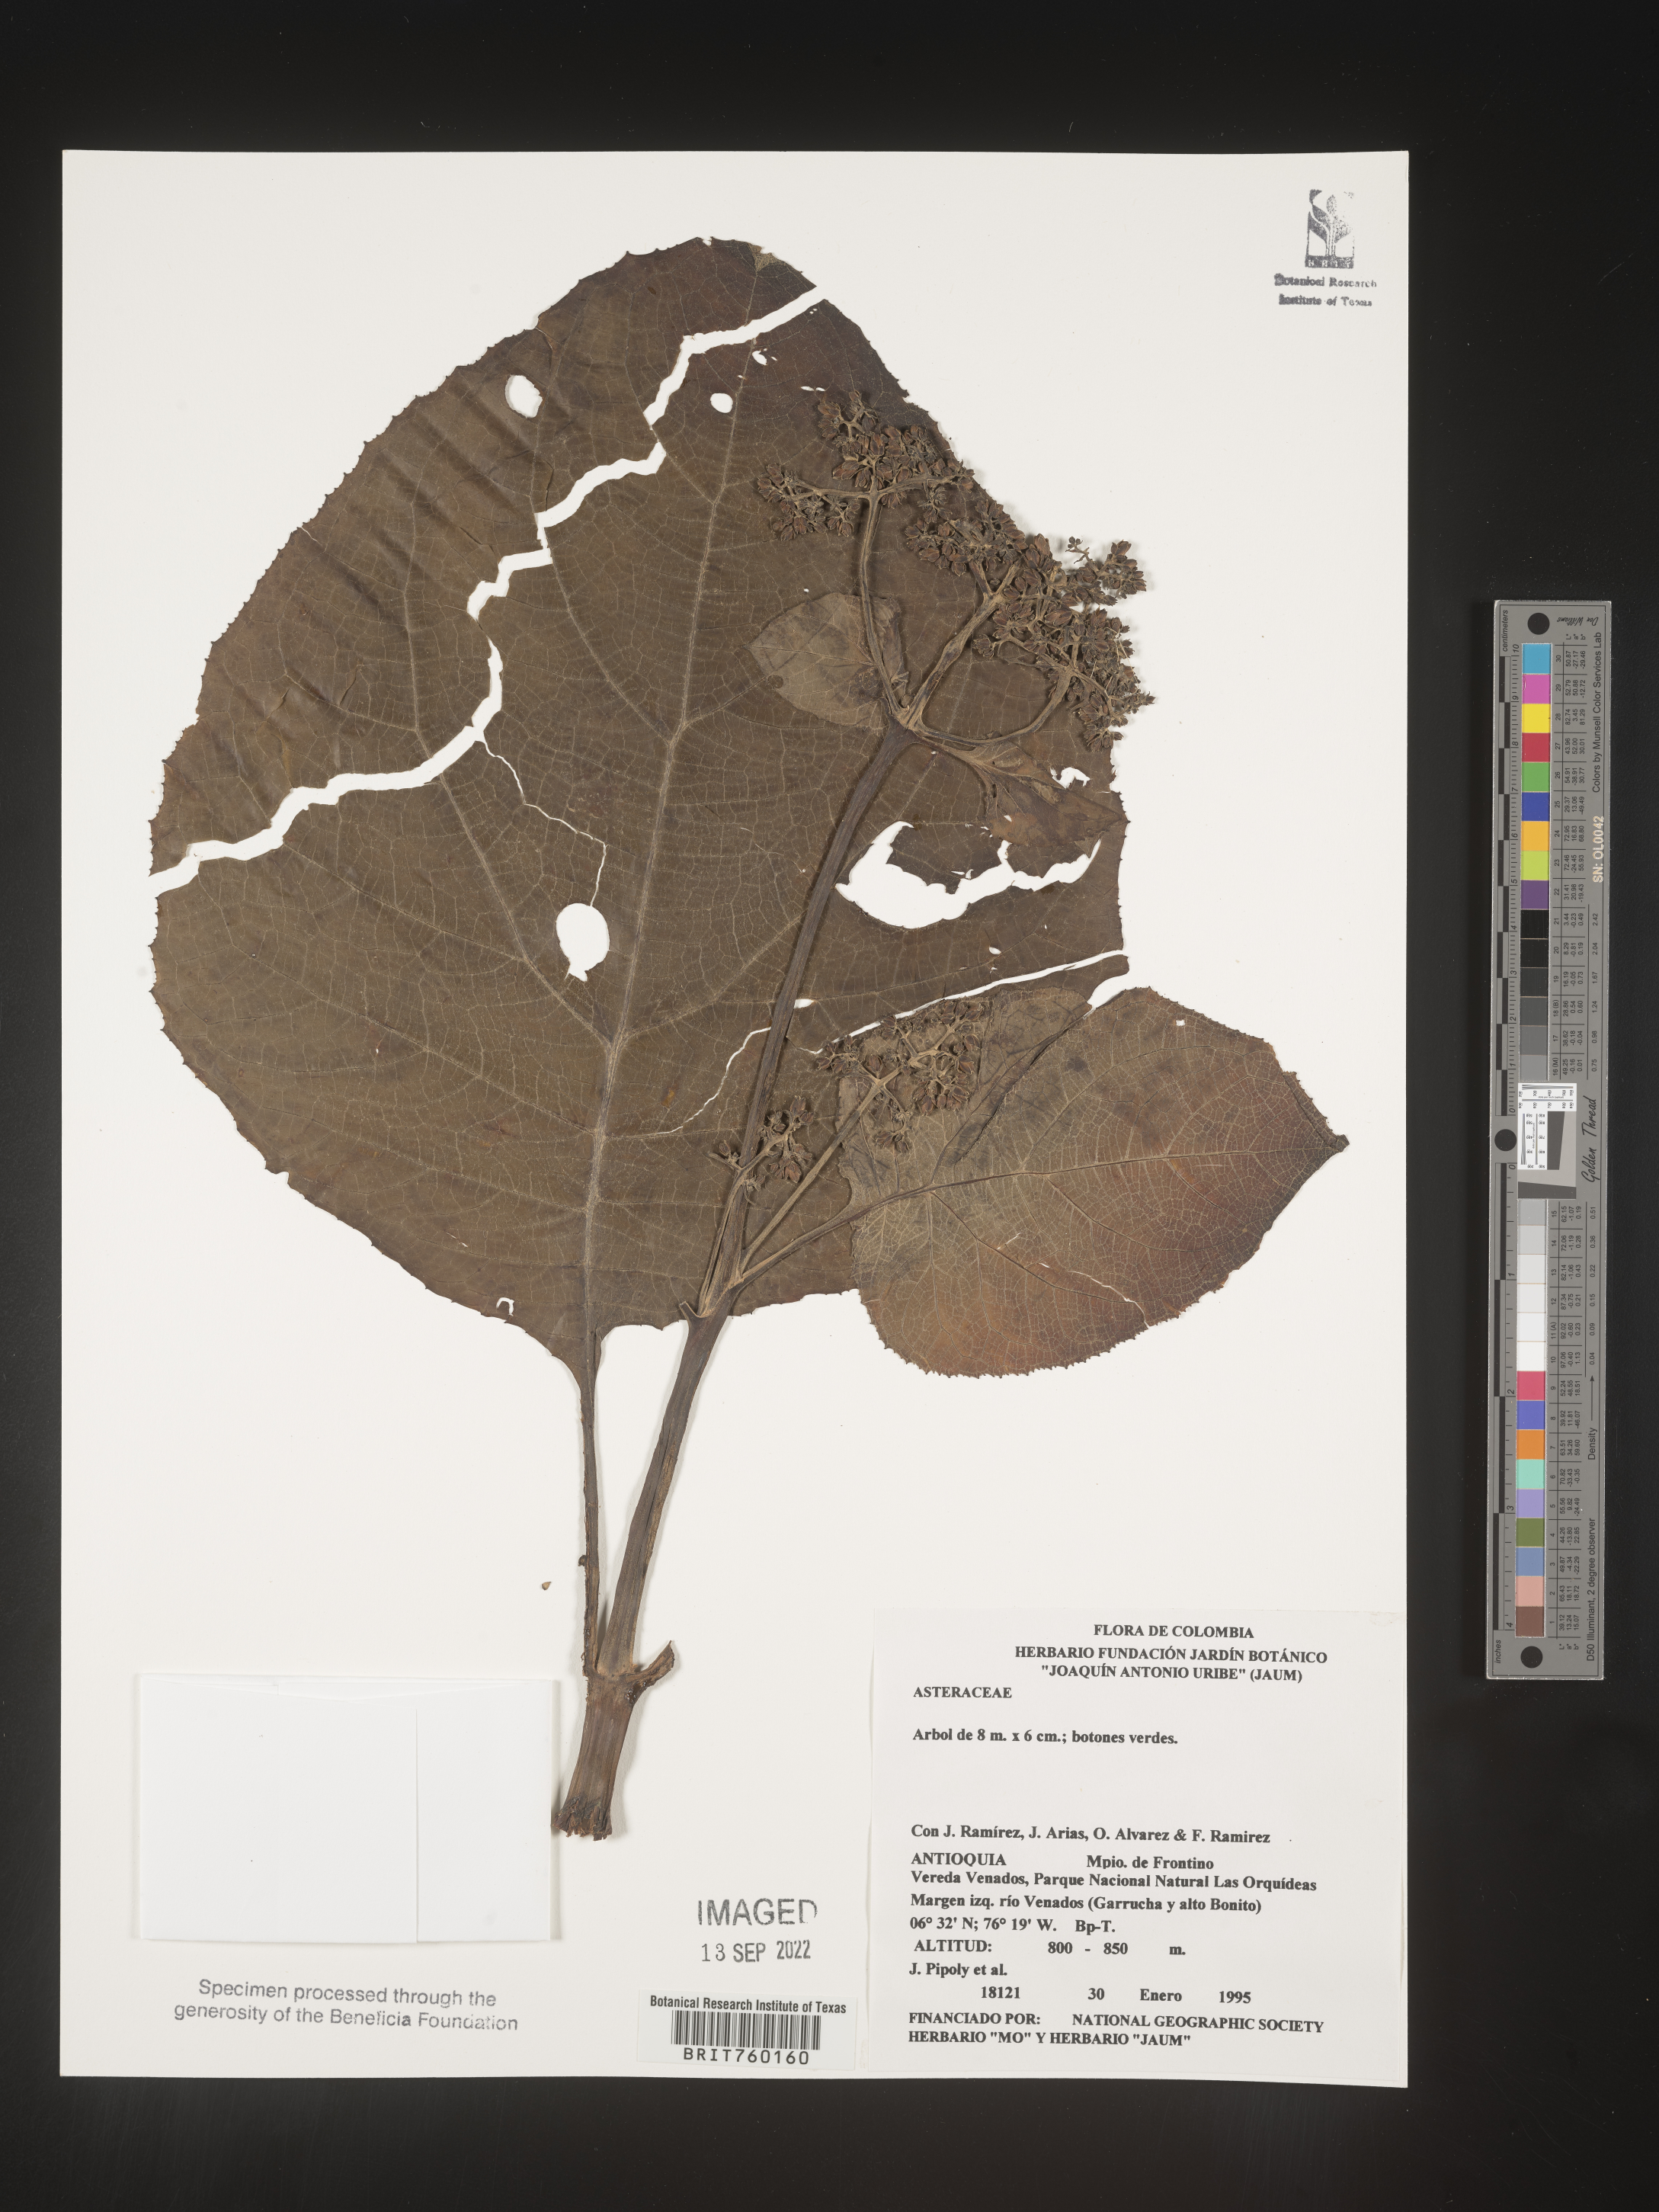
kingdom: Plantae
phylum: Tracheophyta
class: Magnoliopsida
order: Asterales
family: Asteraceae
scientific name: Asteraceae
